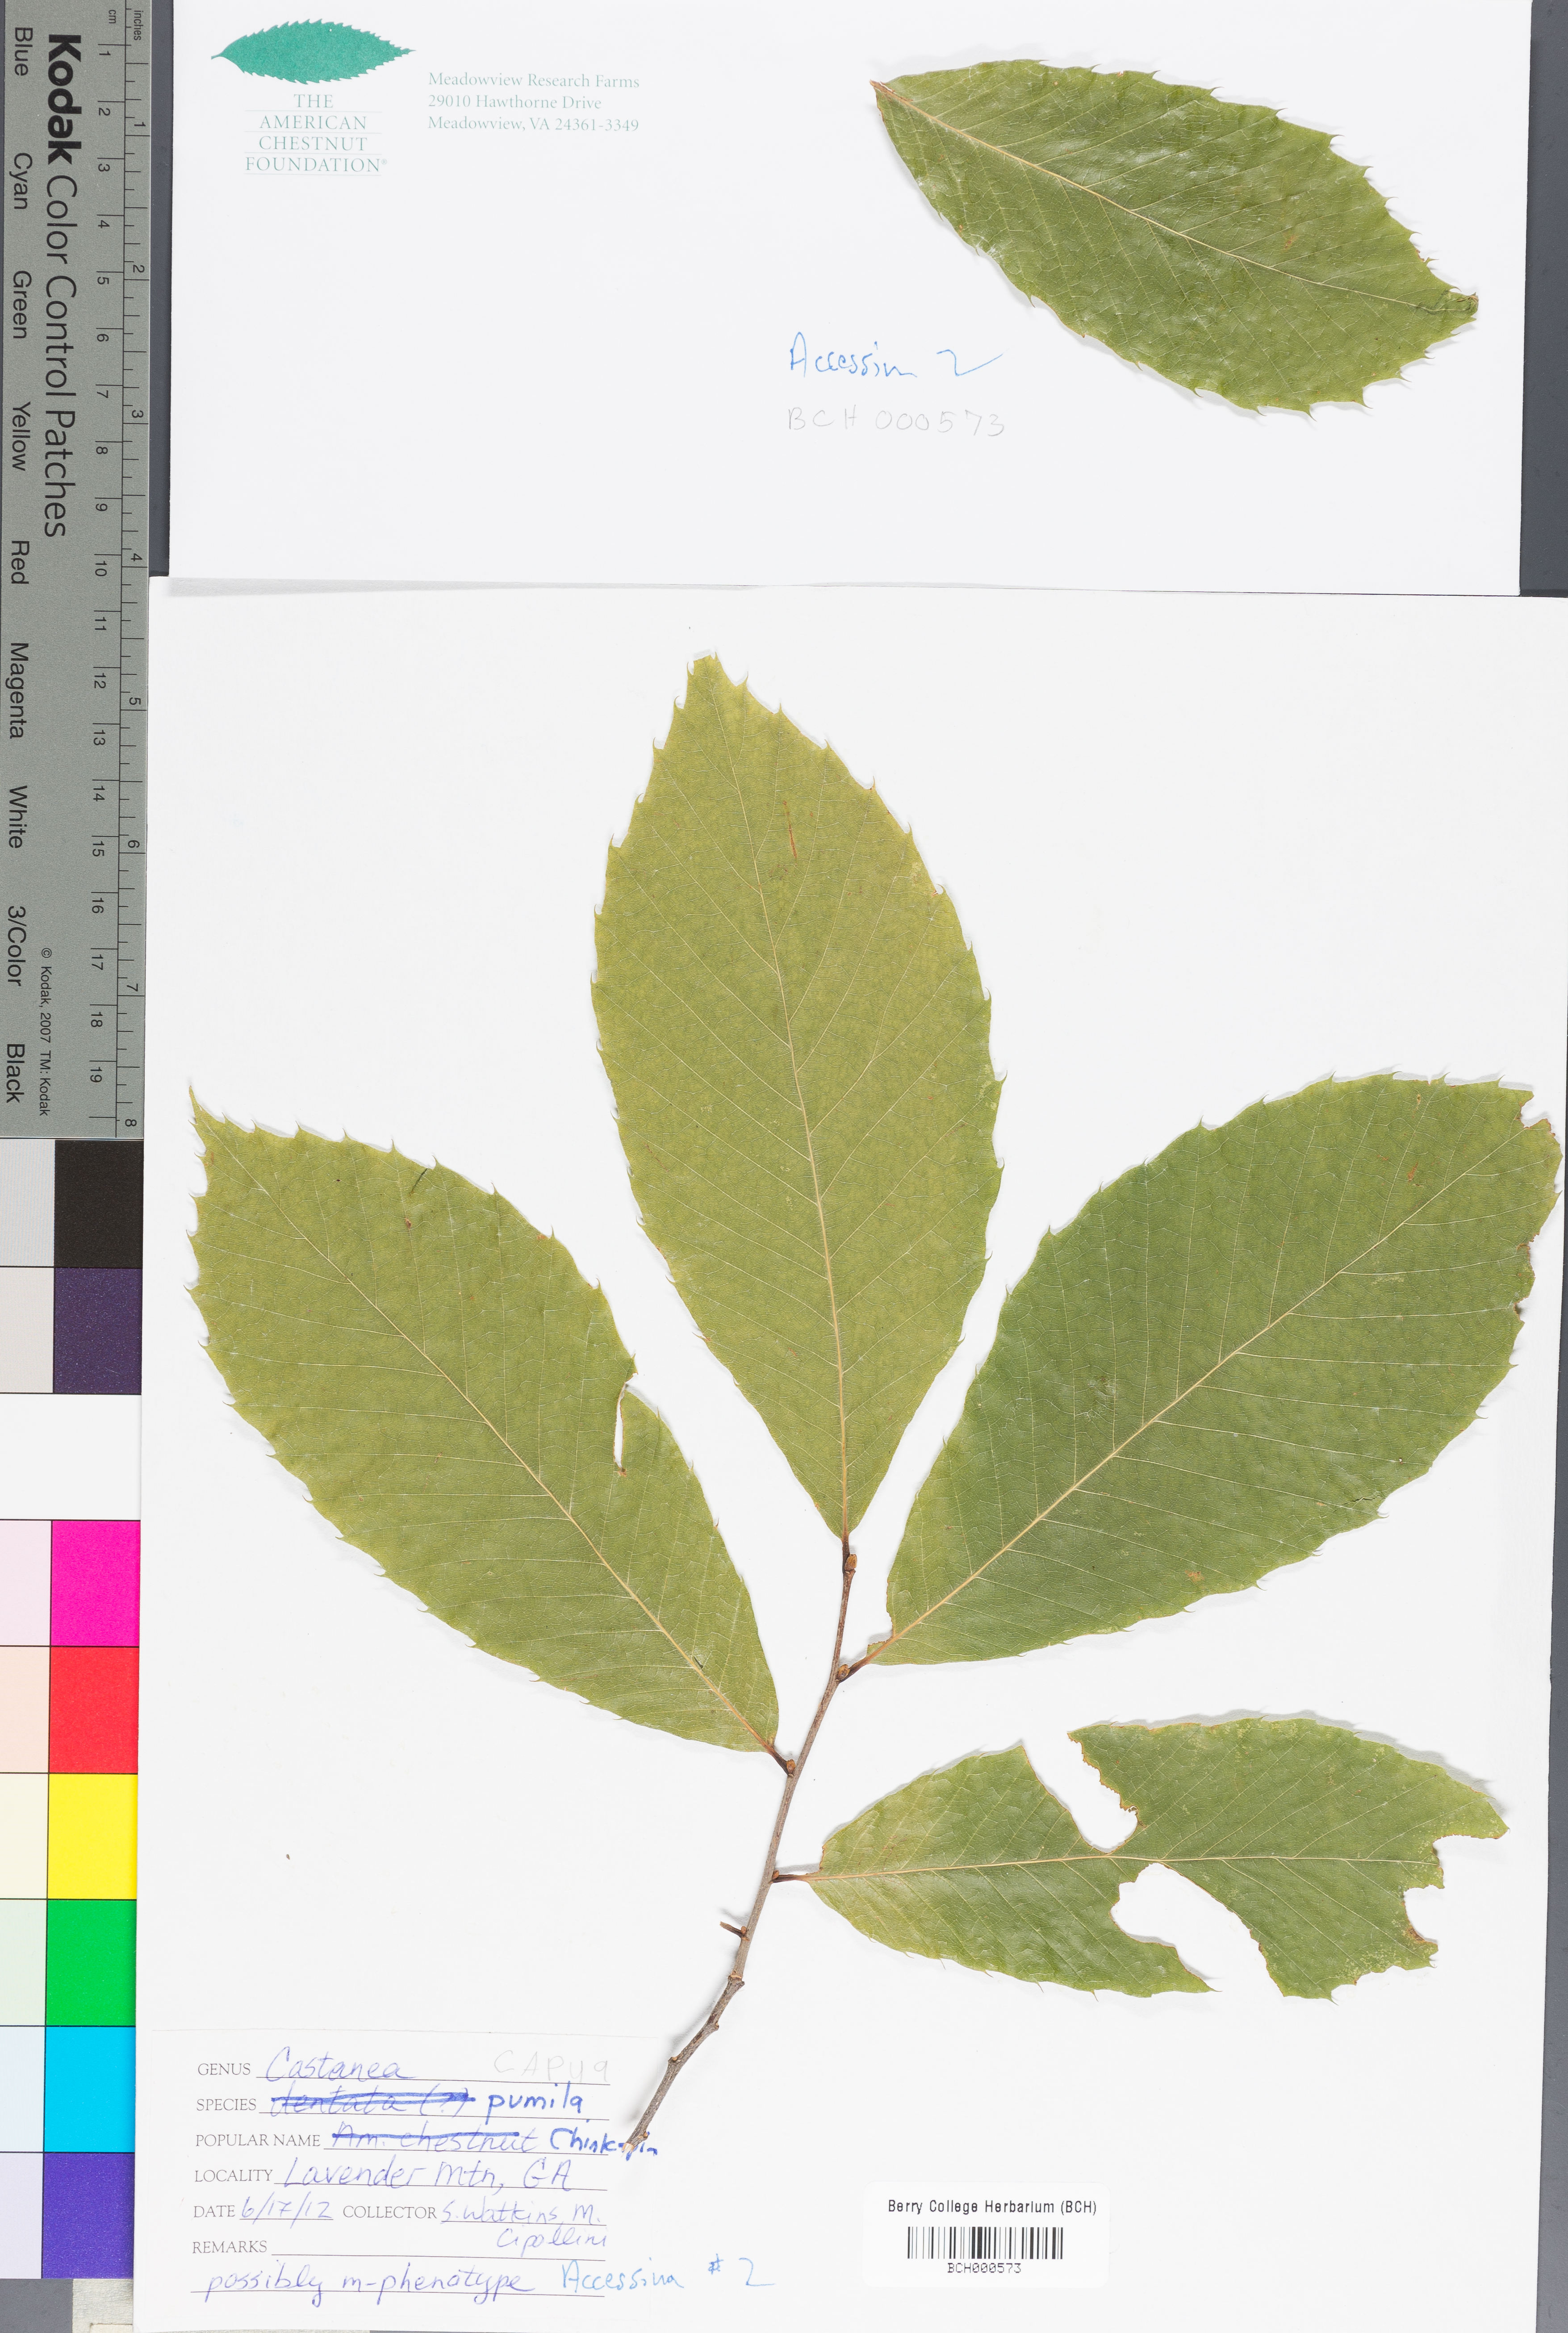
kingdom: Plantae
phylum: Tracheophyta
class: Magnoliopsida
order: Fagales
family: Fagaceae
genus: Castanea
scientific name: Castanea pumila
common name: Chinkapin
